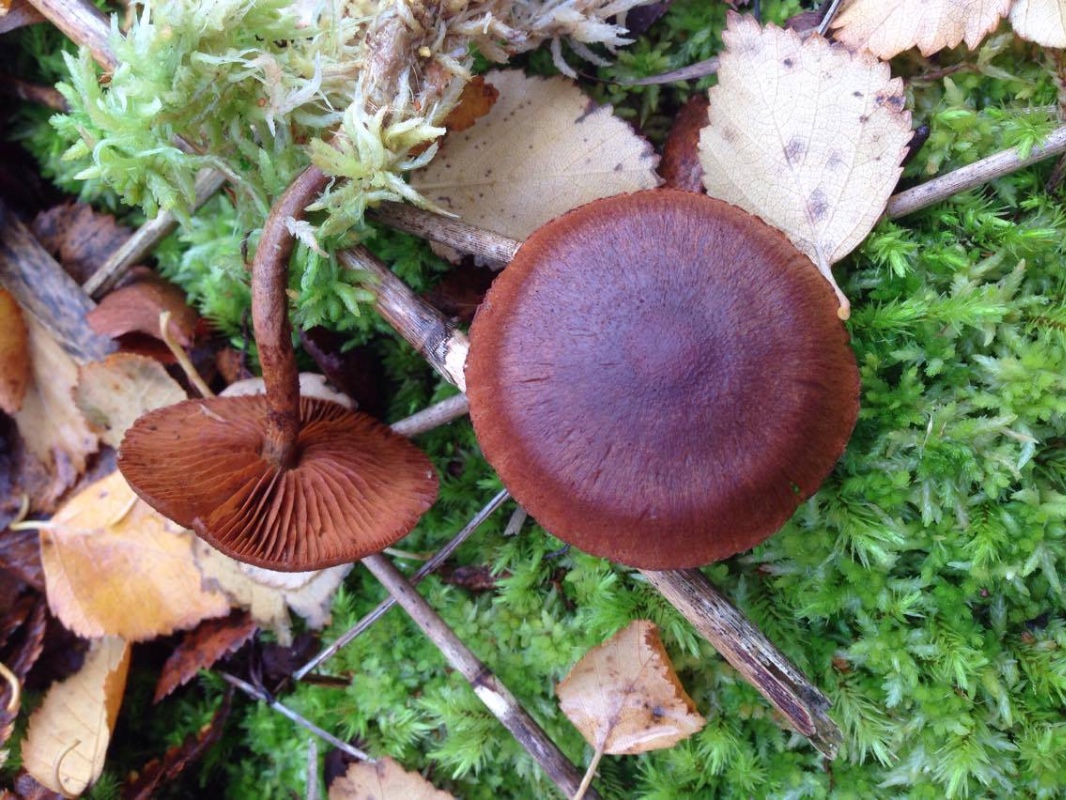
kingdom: Fungi
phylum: Basidiomycota
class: Agaricomycetes
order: Agaricales
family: Cortinariaceae
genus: Cortinarius
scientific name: Cortinarius
